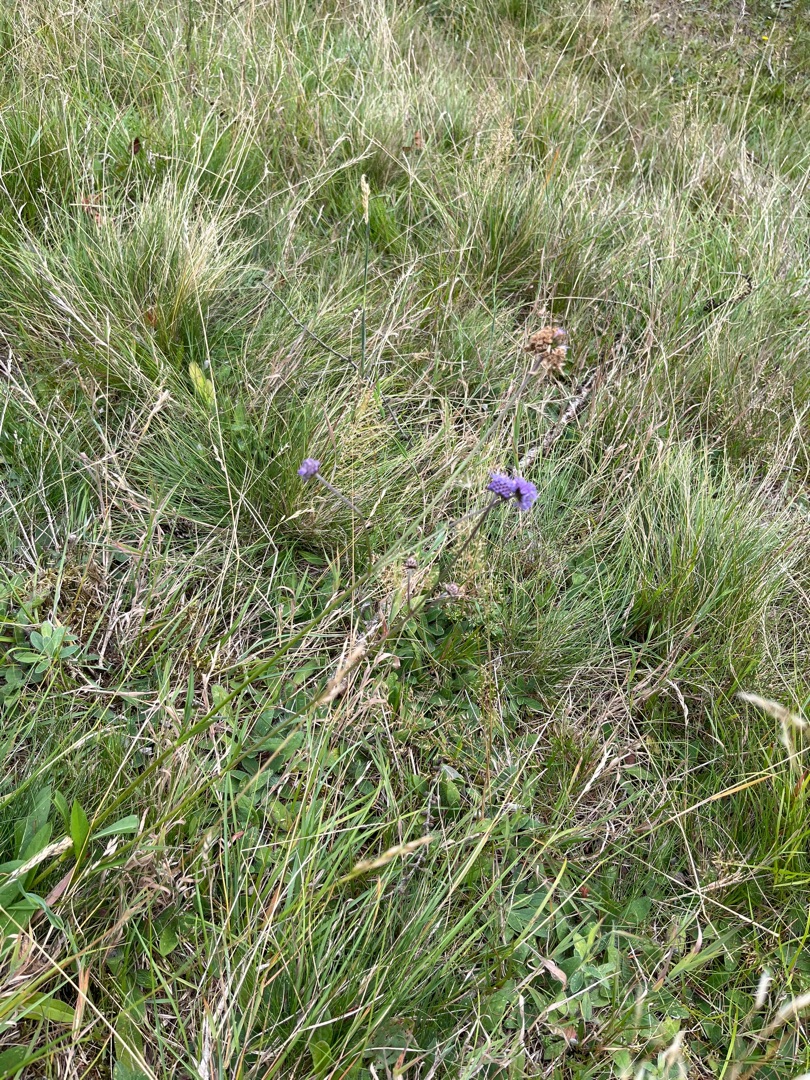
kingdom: Plantae
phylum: Tracheophyta
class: Magnoliopsida
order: Dipsacales
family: Caprifoliaceae
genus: Succisa
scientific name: Succisa pratensis
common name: Djævelsbid
